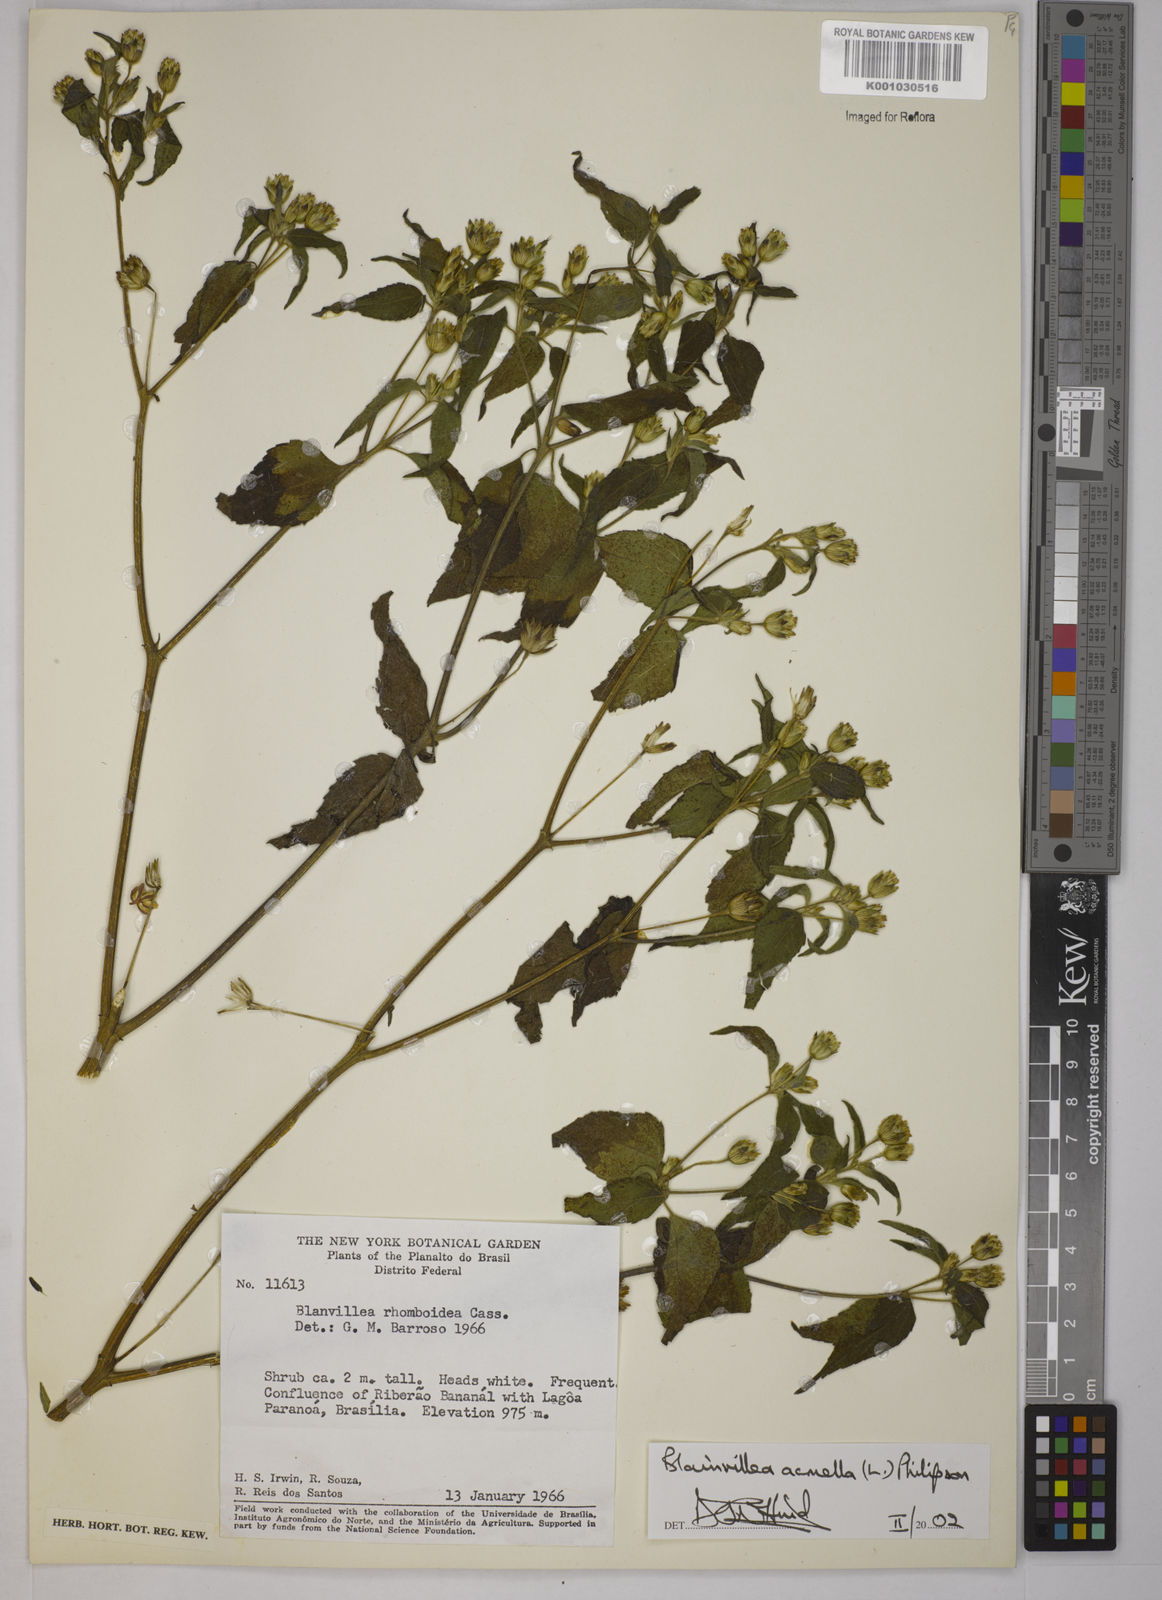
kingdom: Plantae
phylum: Tracheophyta
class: Magnoliopsida
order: Asterales
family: Asteraceae
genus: Blainvillea
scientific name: Blainvillea acmella
